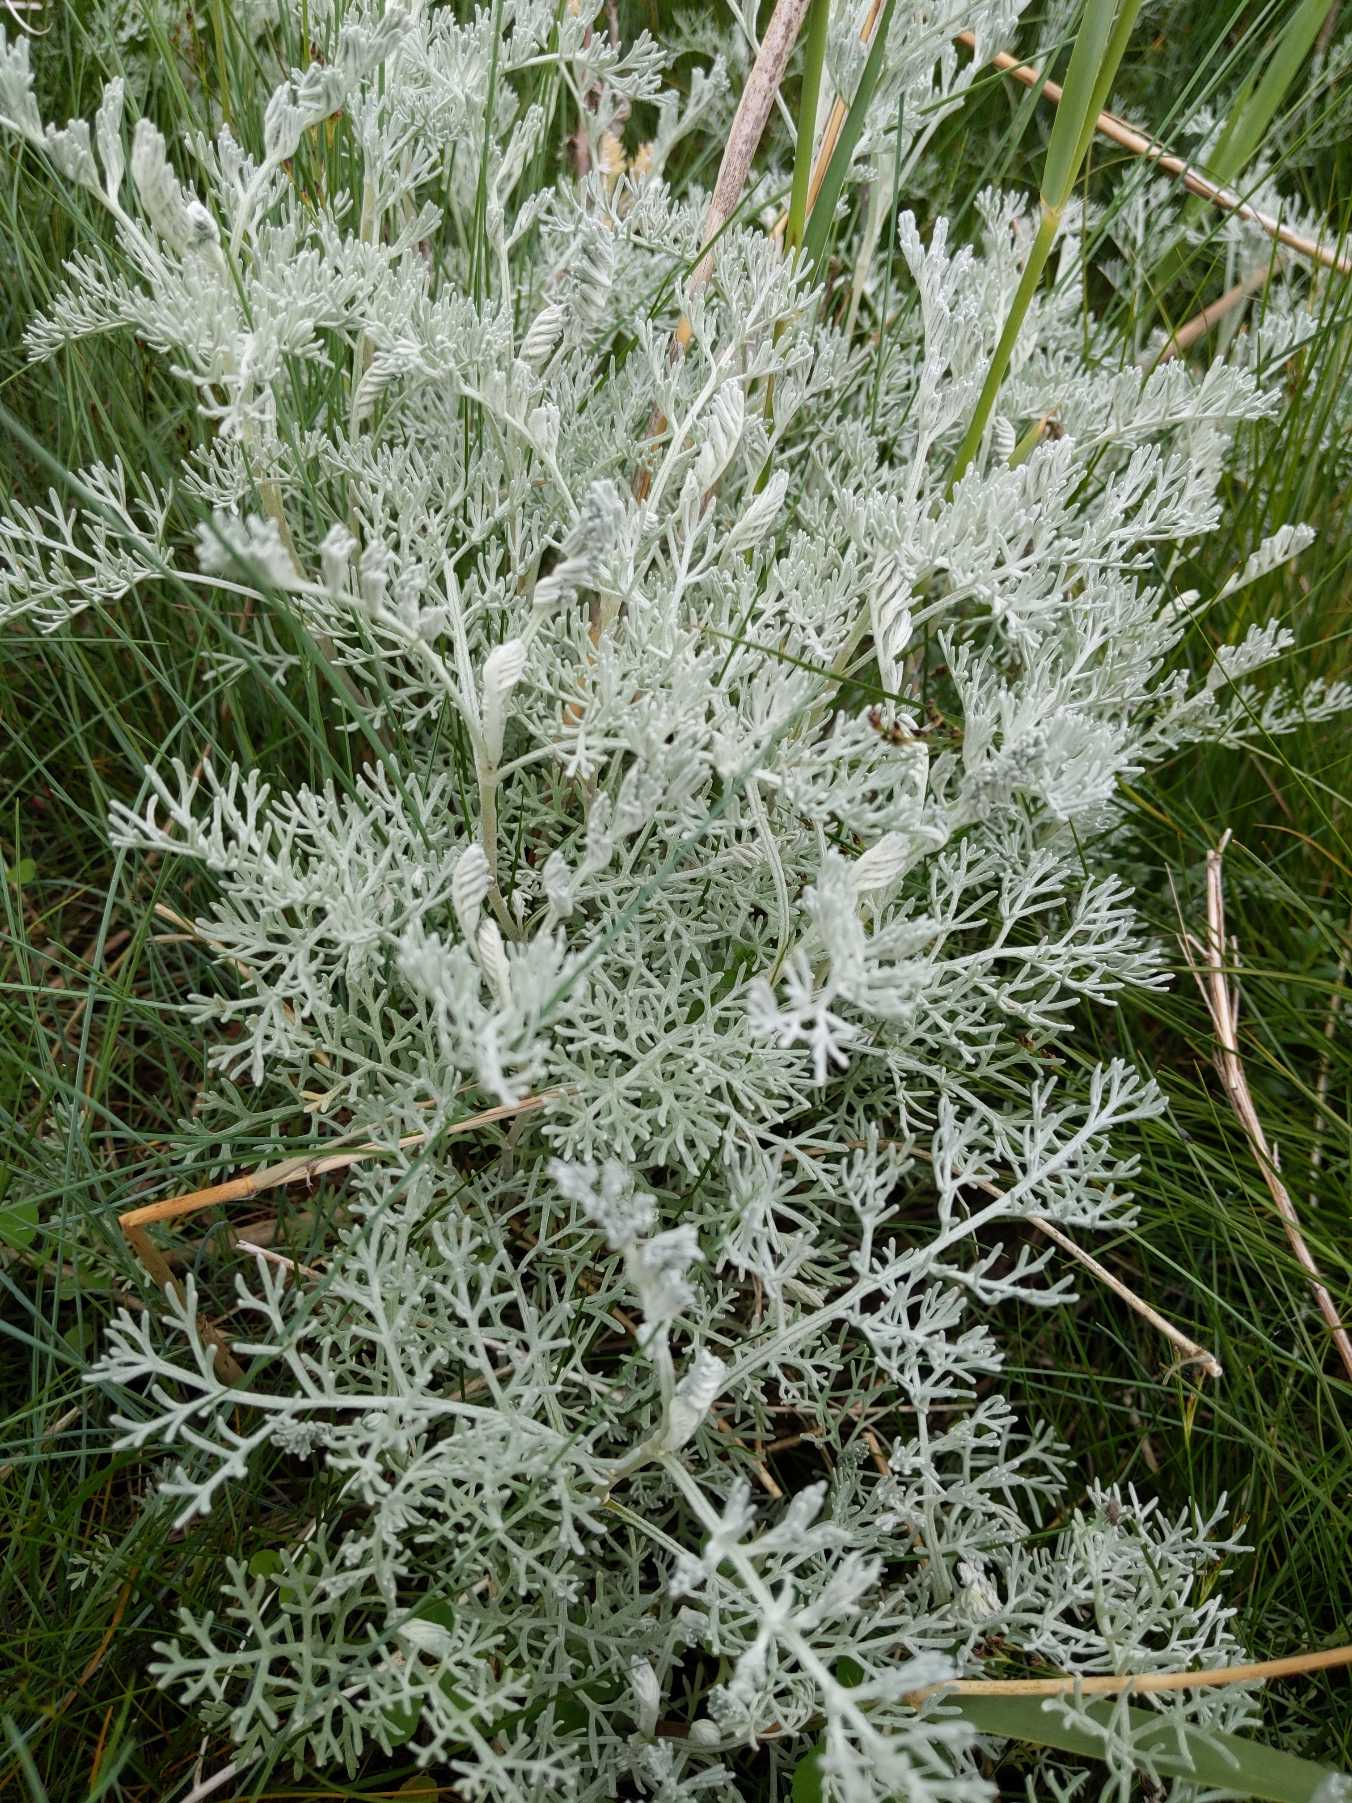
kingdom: Plantae
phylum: Tracheophyta
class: Magnoliopsida
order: Asterales
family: Asteraceae
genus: Artemisia
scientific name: Artemisia maritima
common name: Strandmalurt
